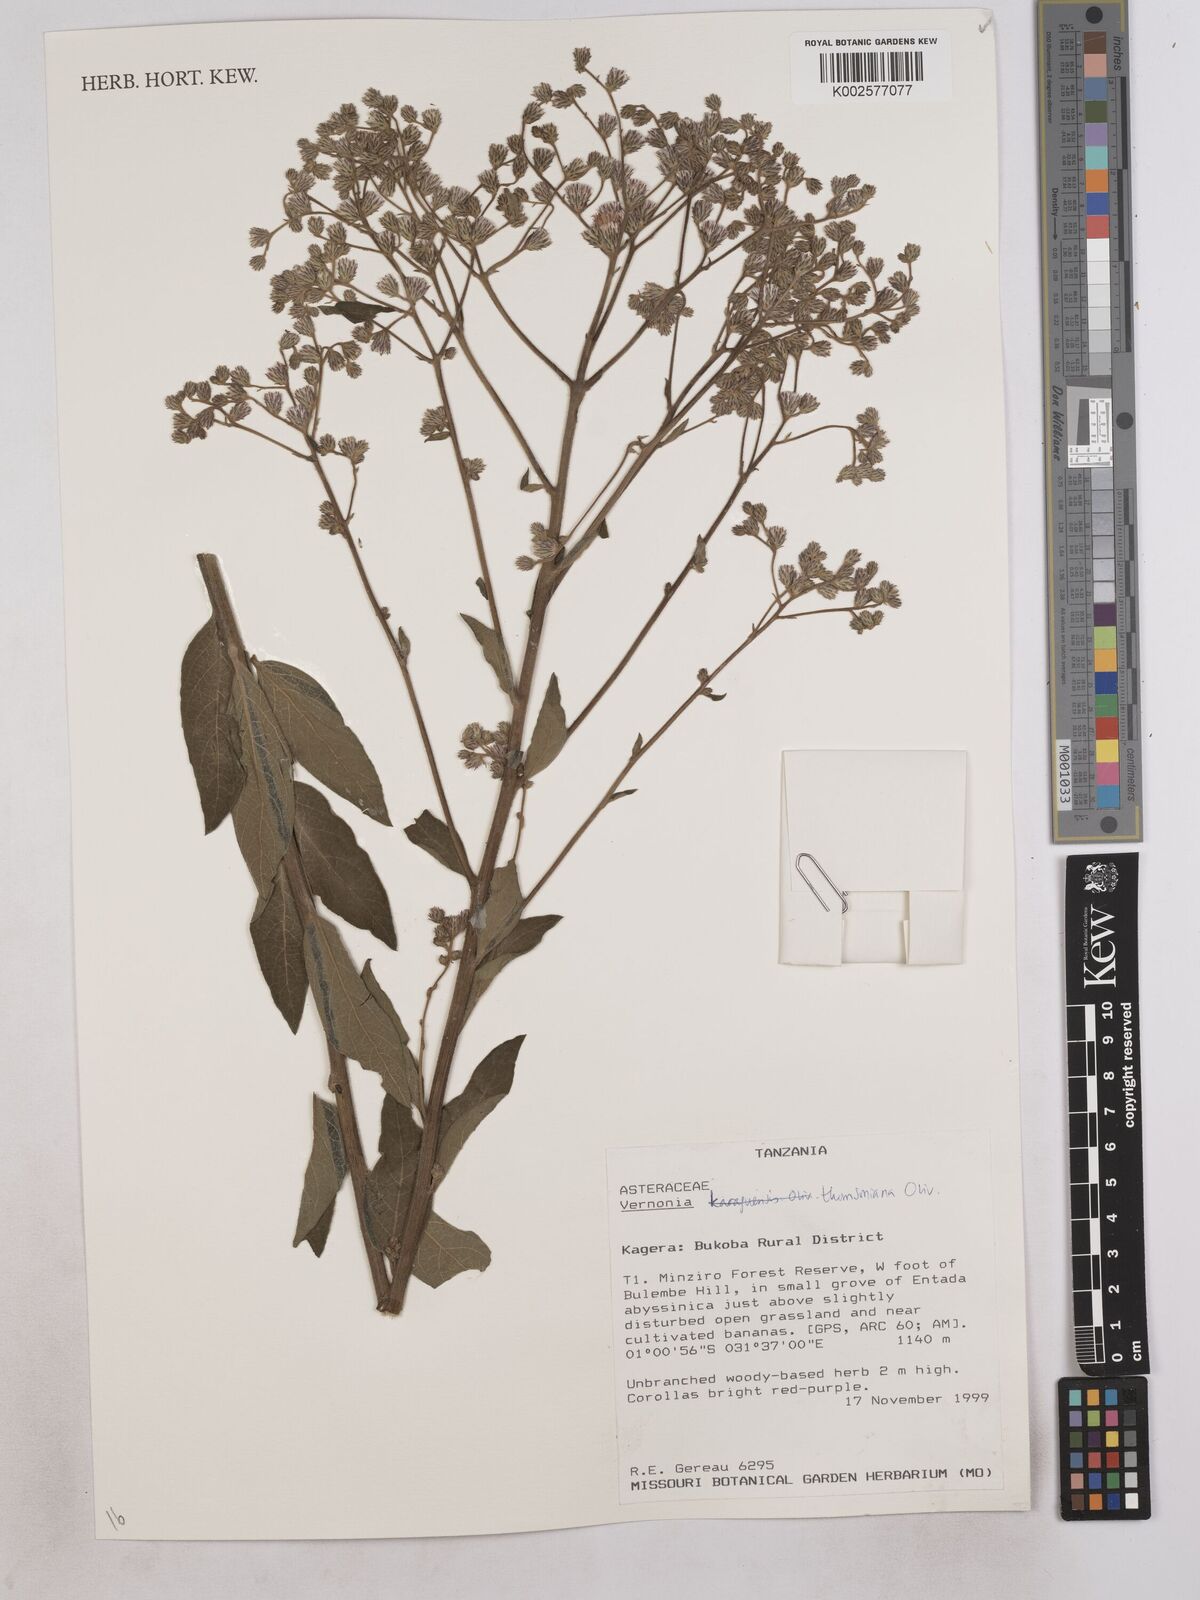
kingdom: Plantae
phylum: Tracheophyta
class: Magnoliopsida
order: Asterales
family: Asteraceae
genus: Gymnanthemum
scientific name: Gymnanthemum thomsonianum
